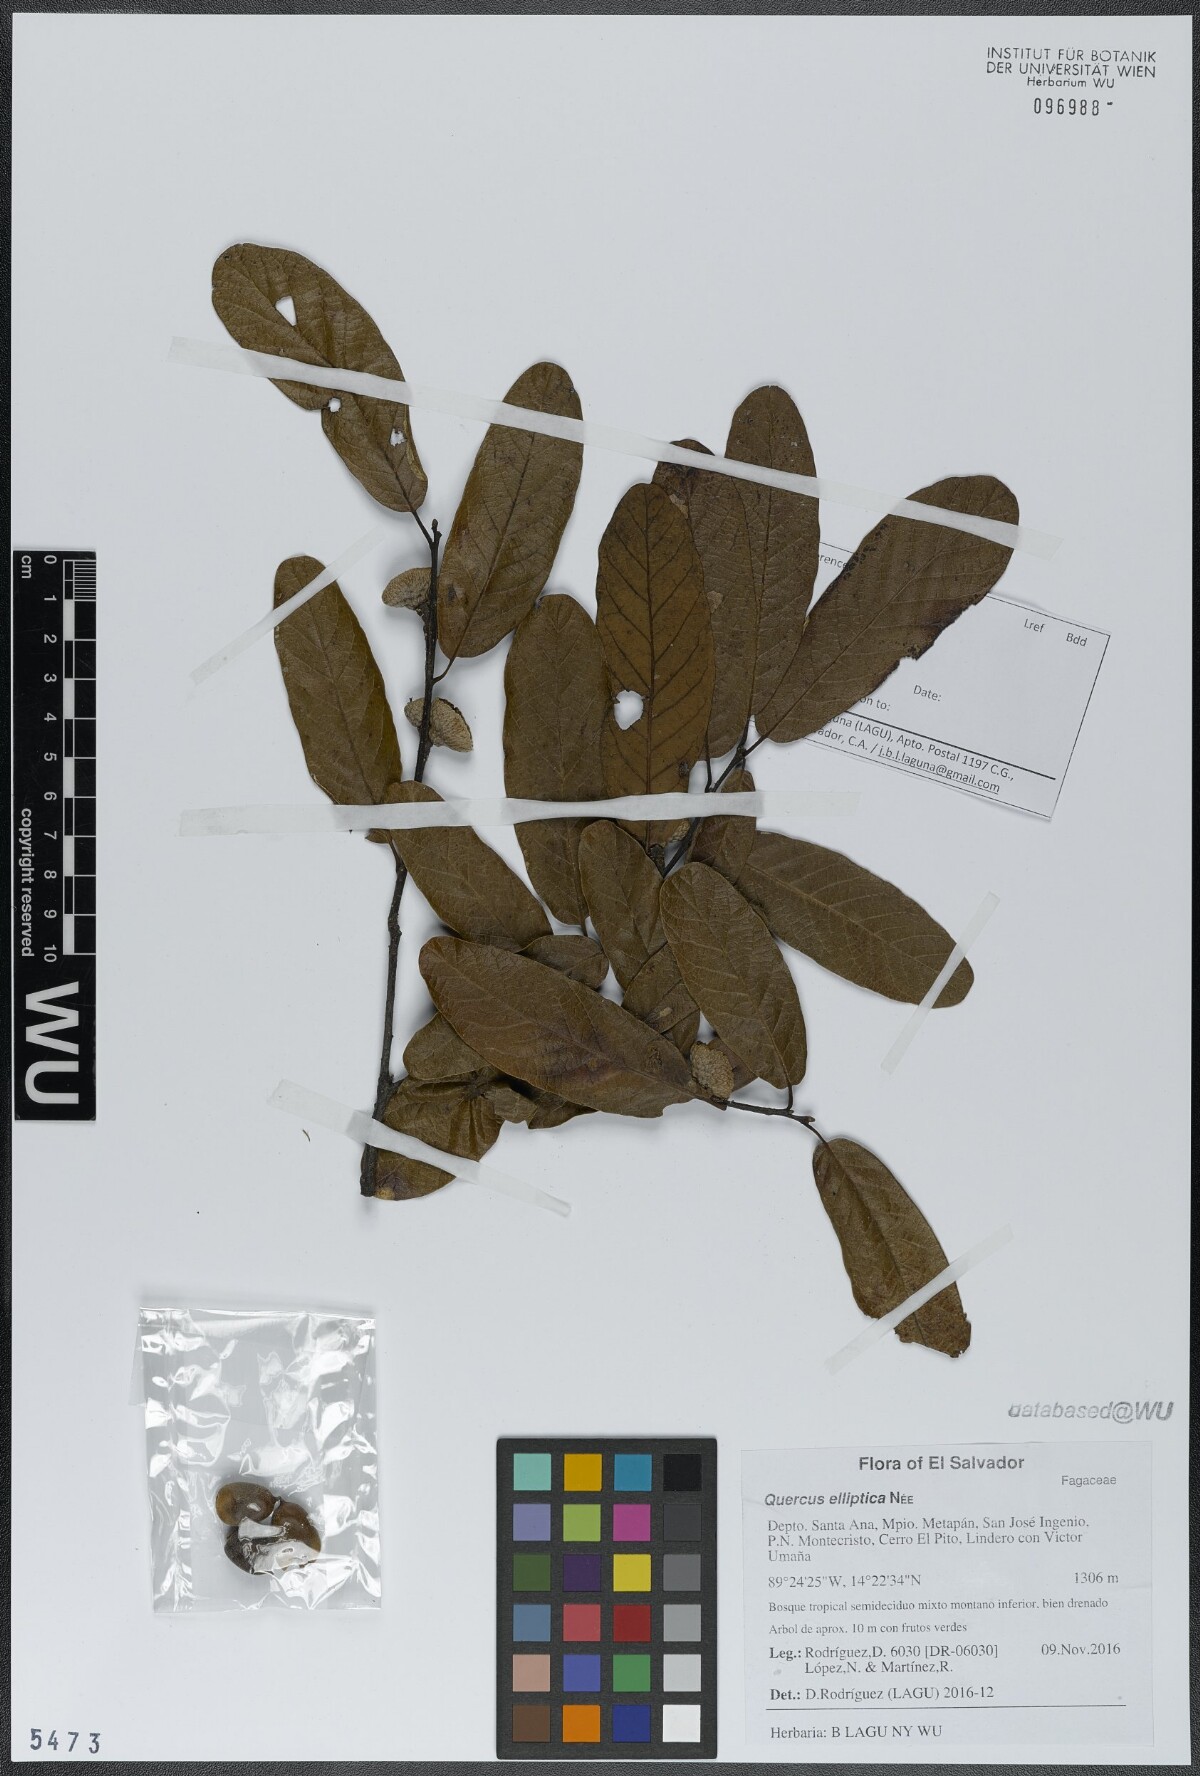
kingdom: Plantae
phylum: Tracheophyta
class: Magnoliopsida
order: Fagales
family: Fagaceae
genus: Quercus
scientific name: Quercus elliptica
